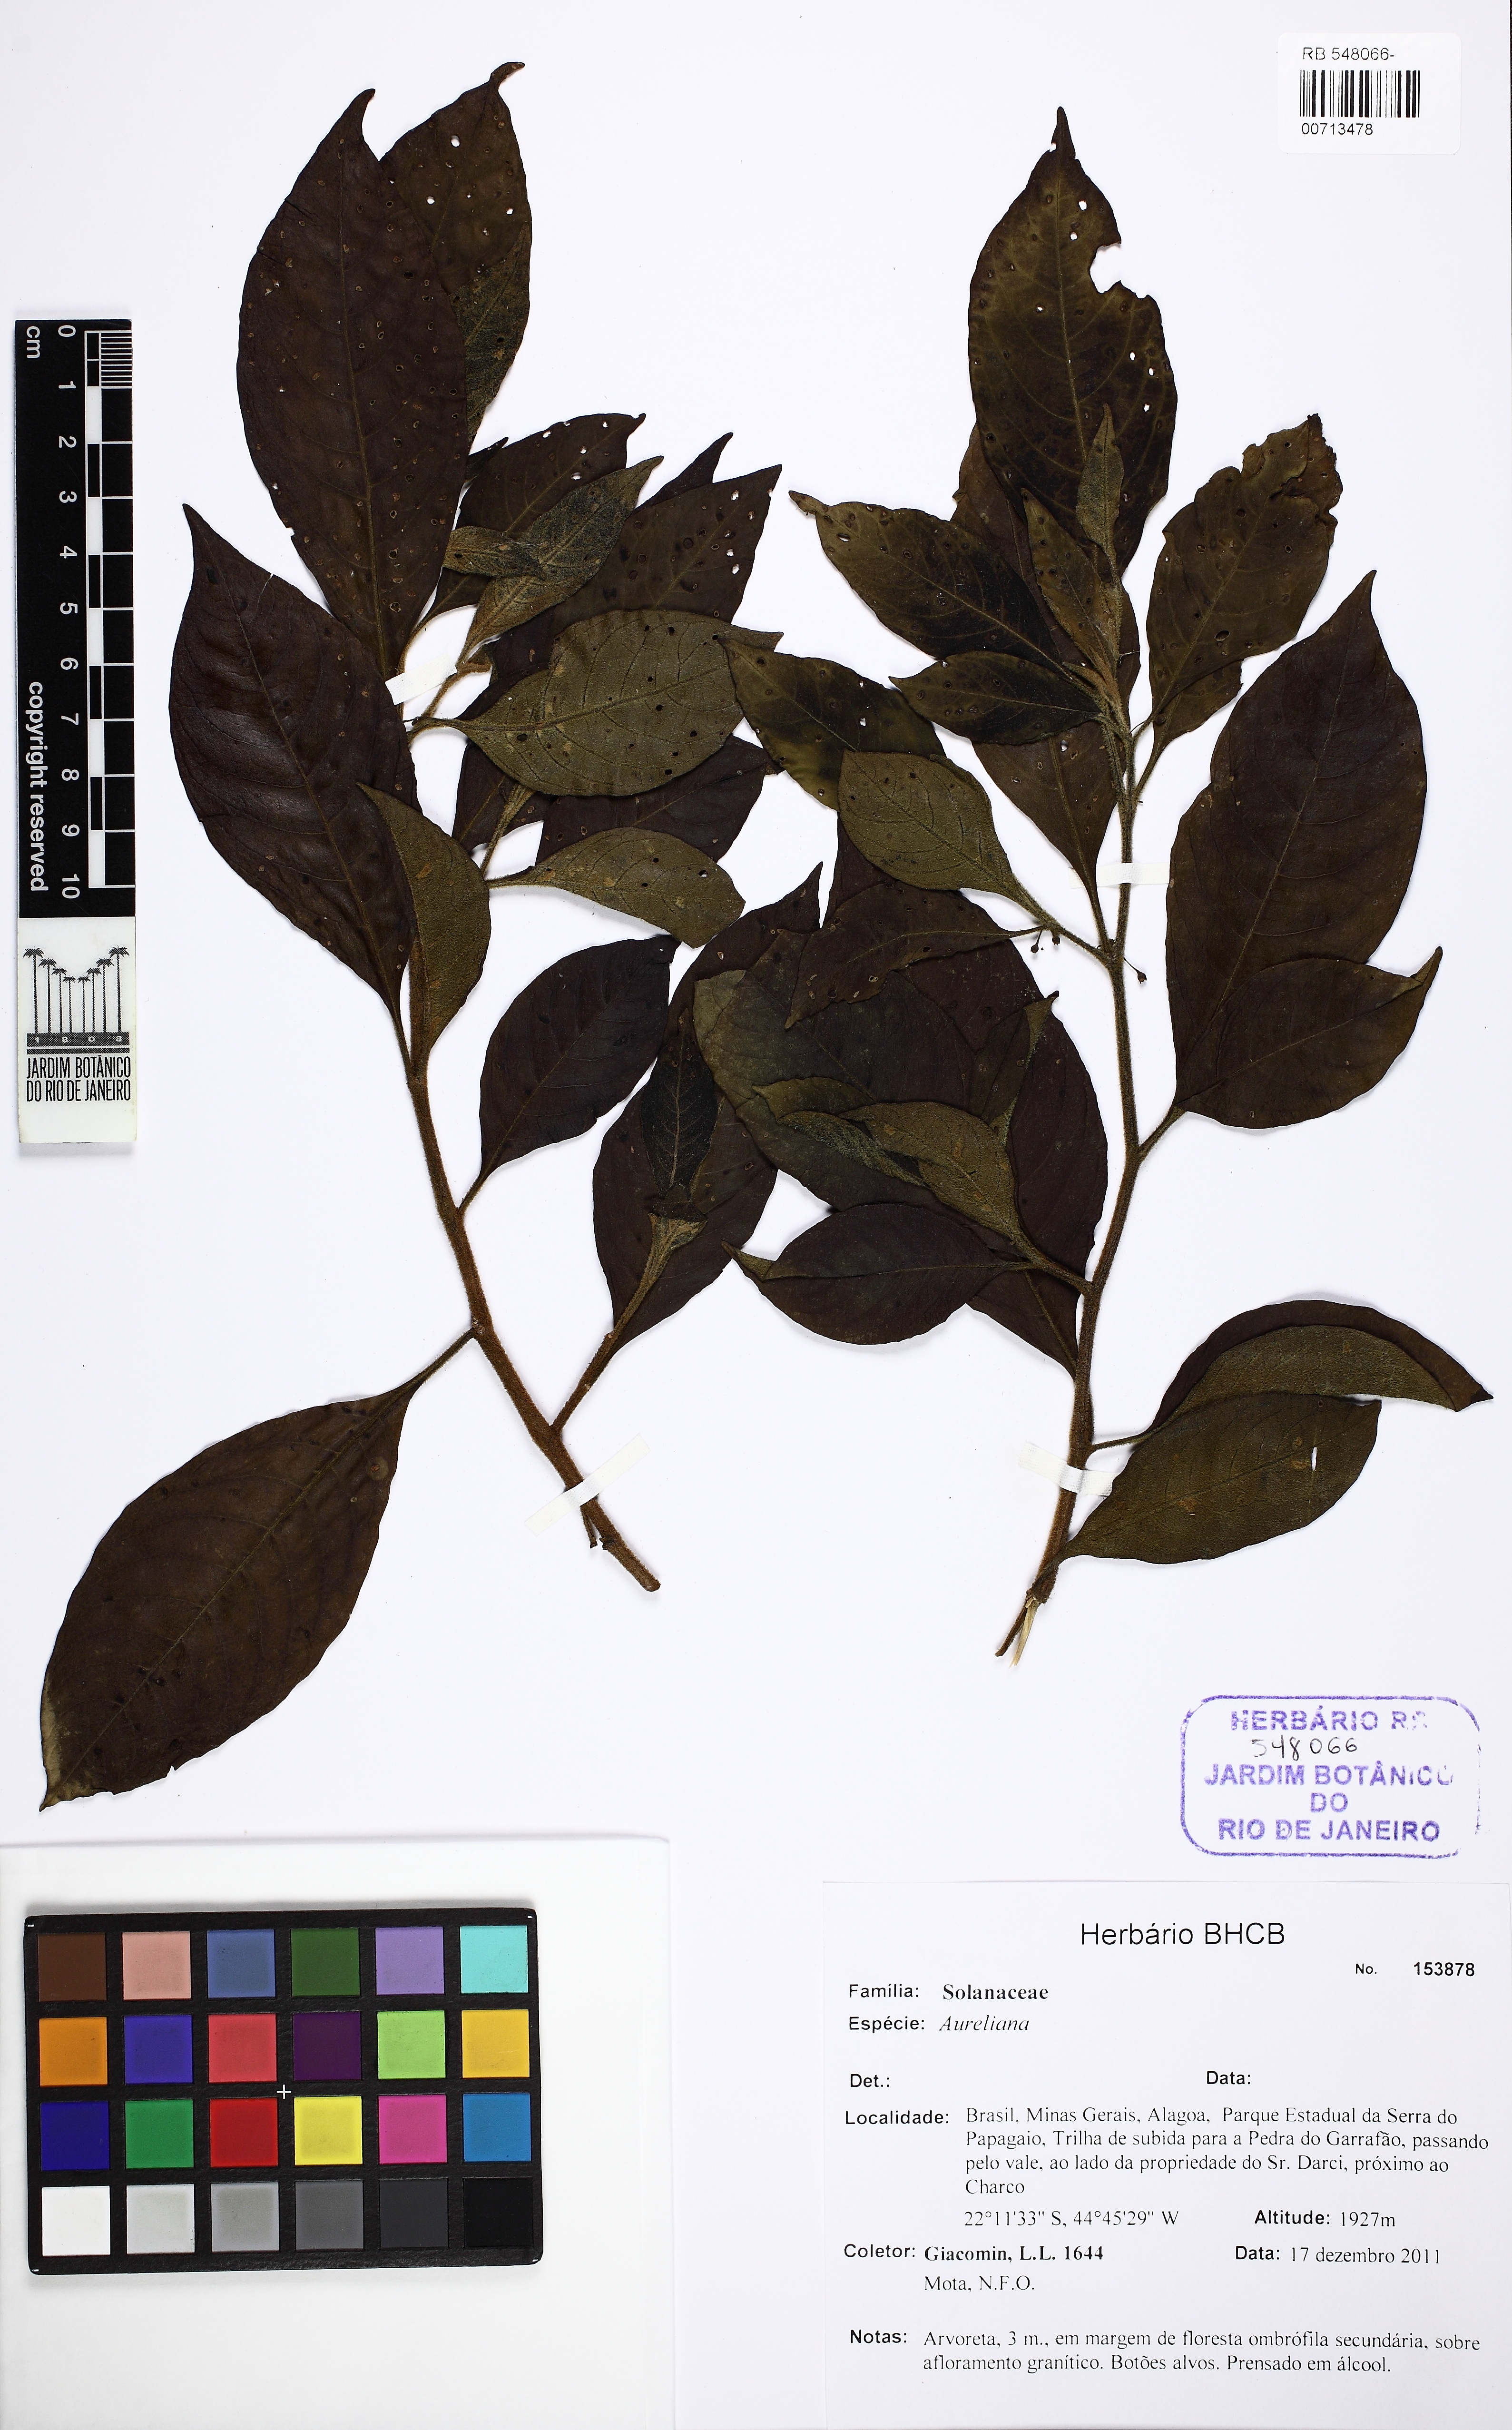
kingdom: Plantae
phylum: Tracheophyta
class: Magnoliopsida
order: Apiales
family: Araliaceae
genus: Aureliana
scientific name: Aureliana
